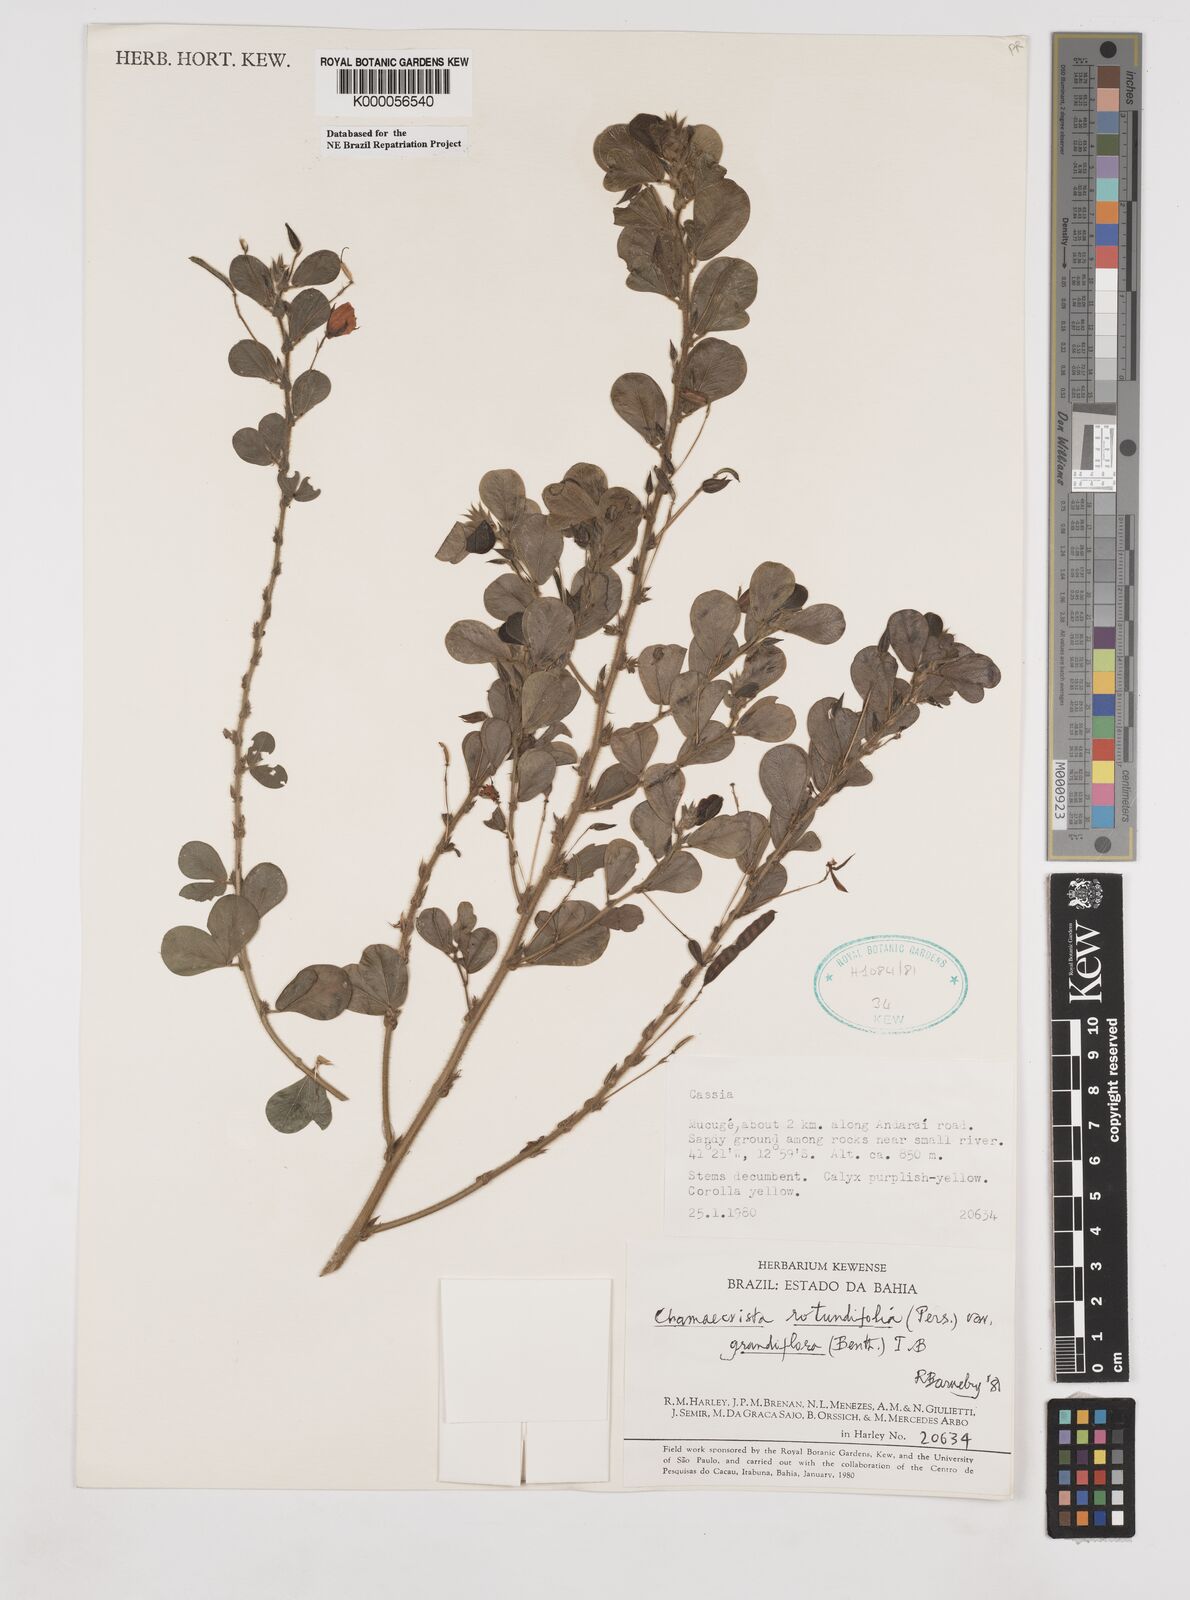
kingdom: Plantae
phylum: Tracheophyta
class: Magnoliopsida
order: Fabales
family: Fabaceae
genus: Chamaecrista
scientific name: Chamaecrista rotundifolia
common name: Round-leaf cassia
